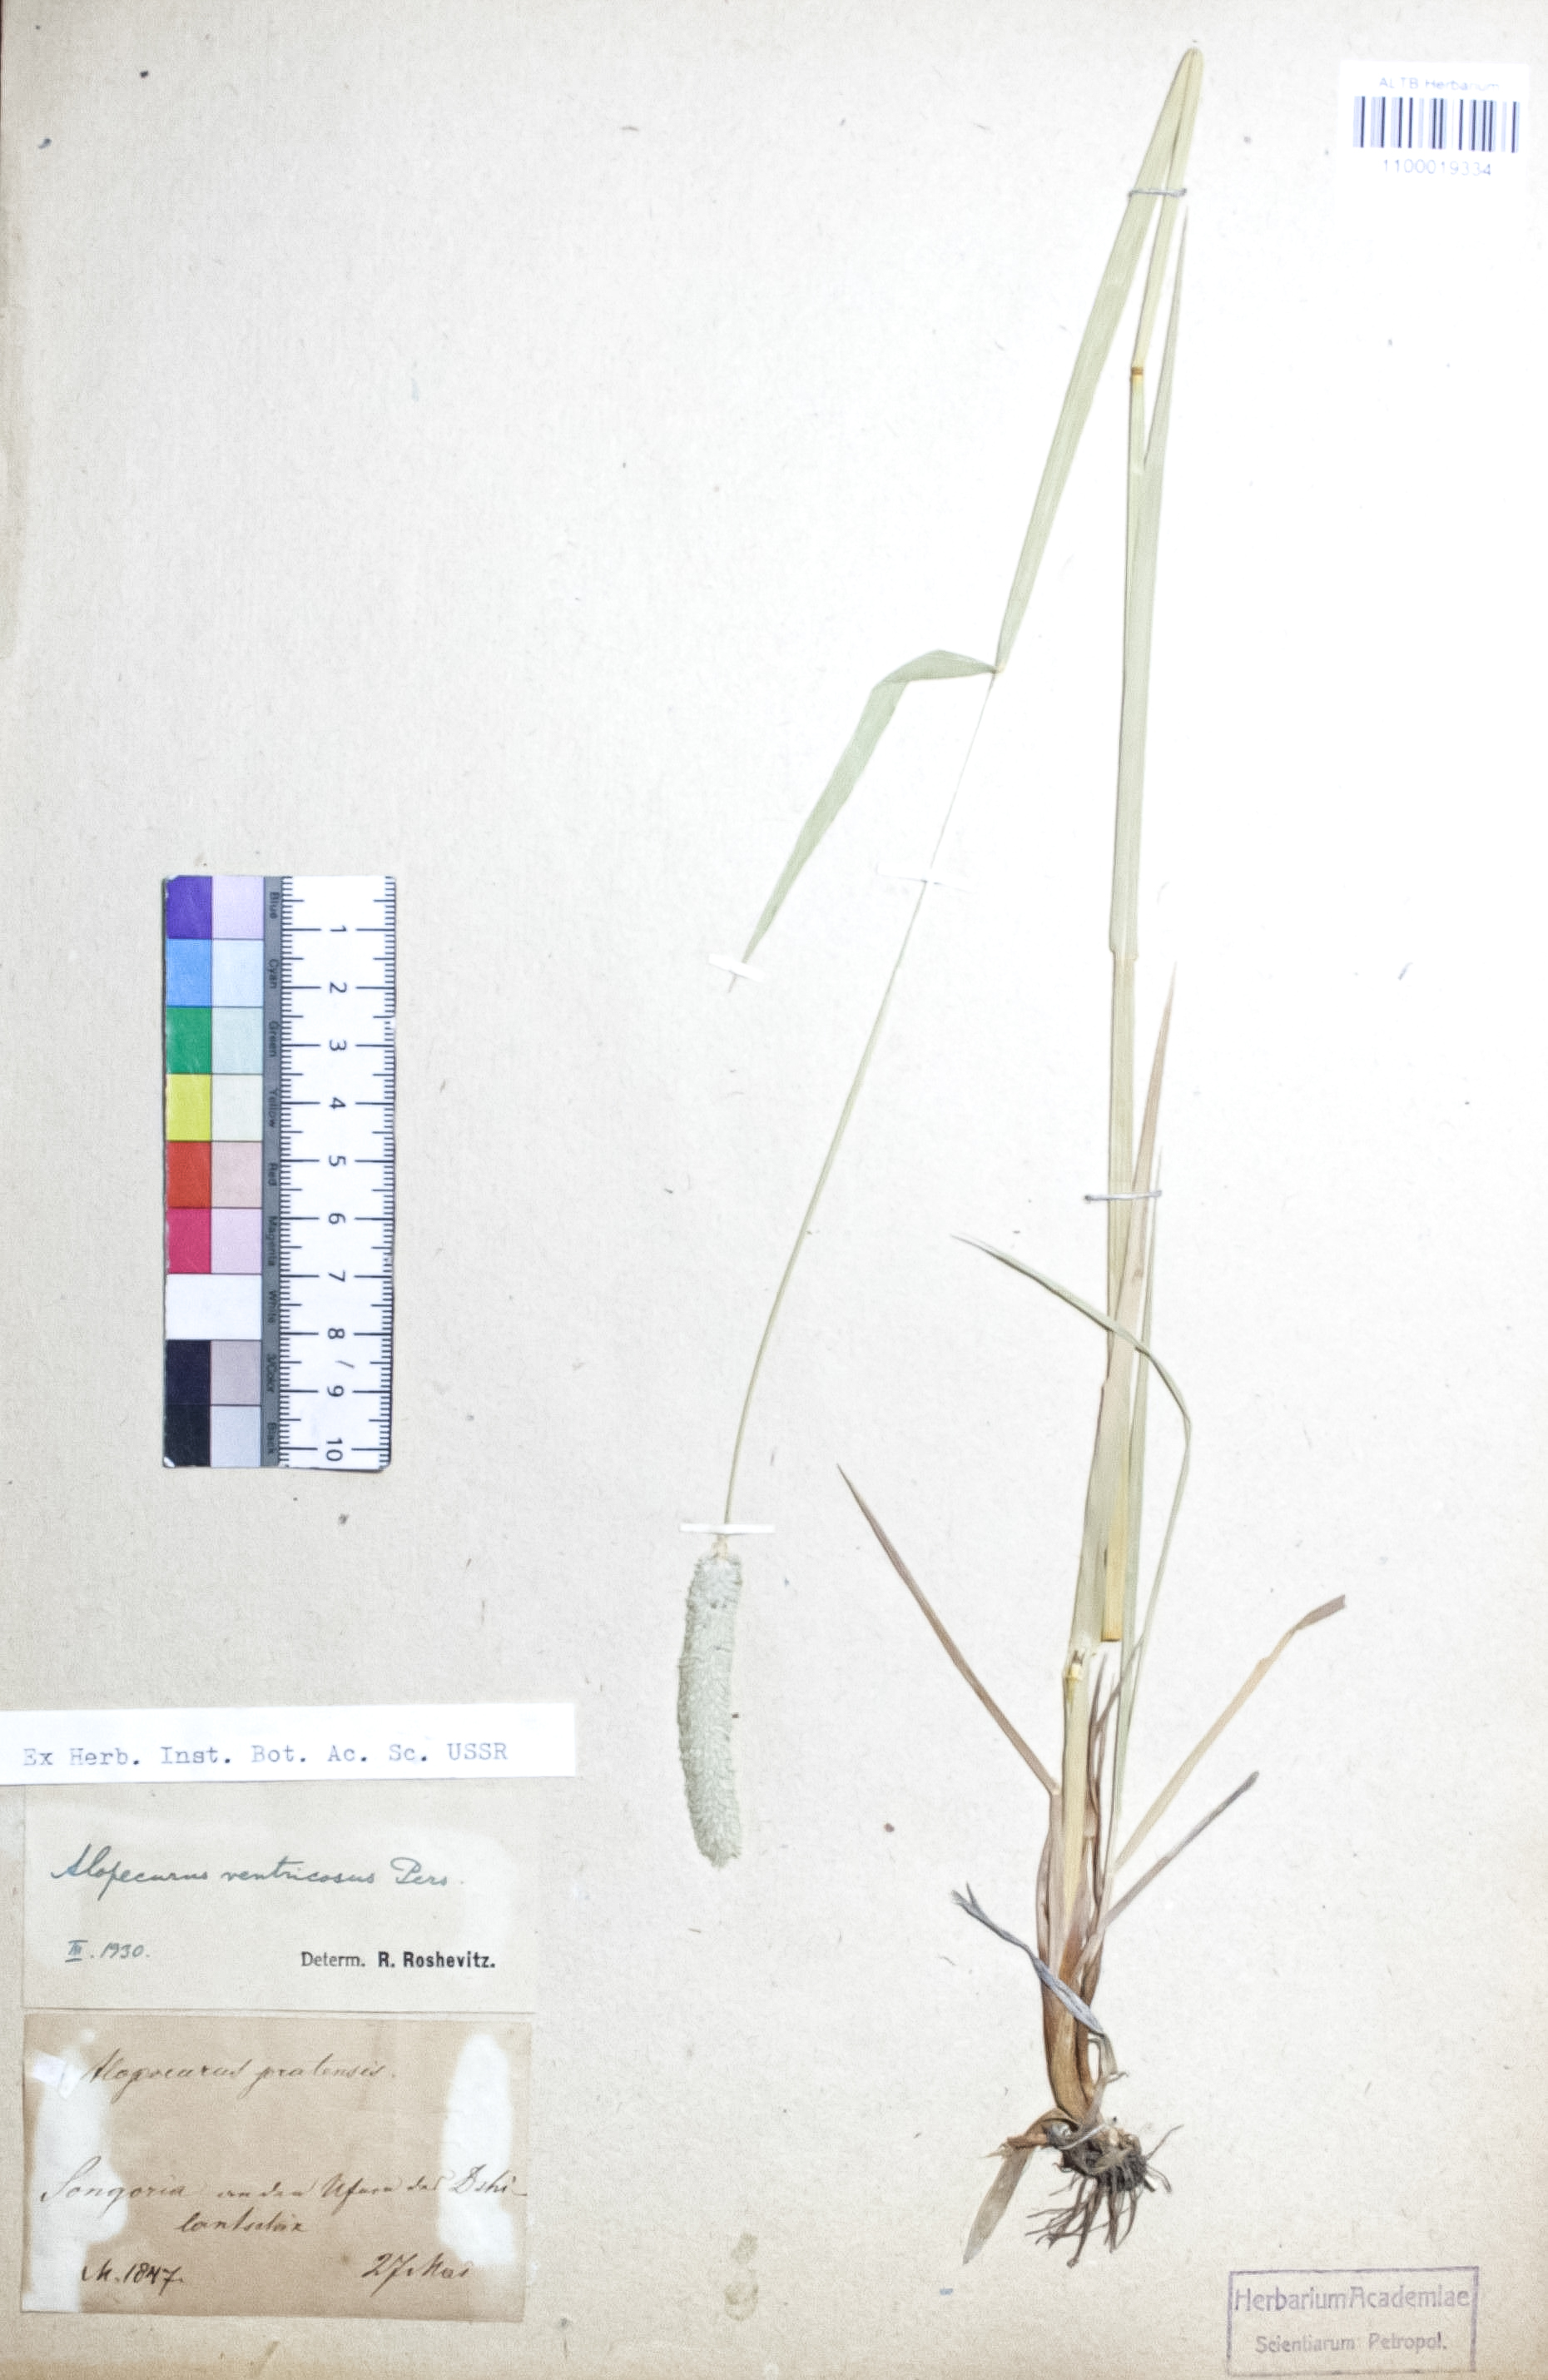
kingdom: Plantae
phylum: Tracheophyta
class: Liliopsida
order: Poales
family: Poaceae
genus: Alopecurus
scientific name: Alopecurus arundinaceus
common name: Creeping meadow foxtail
